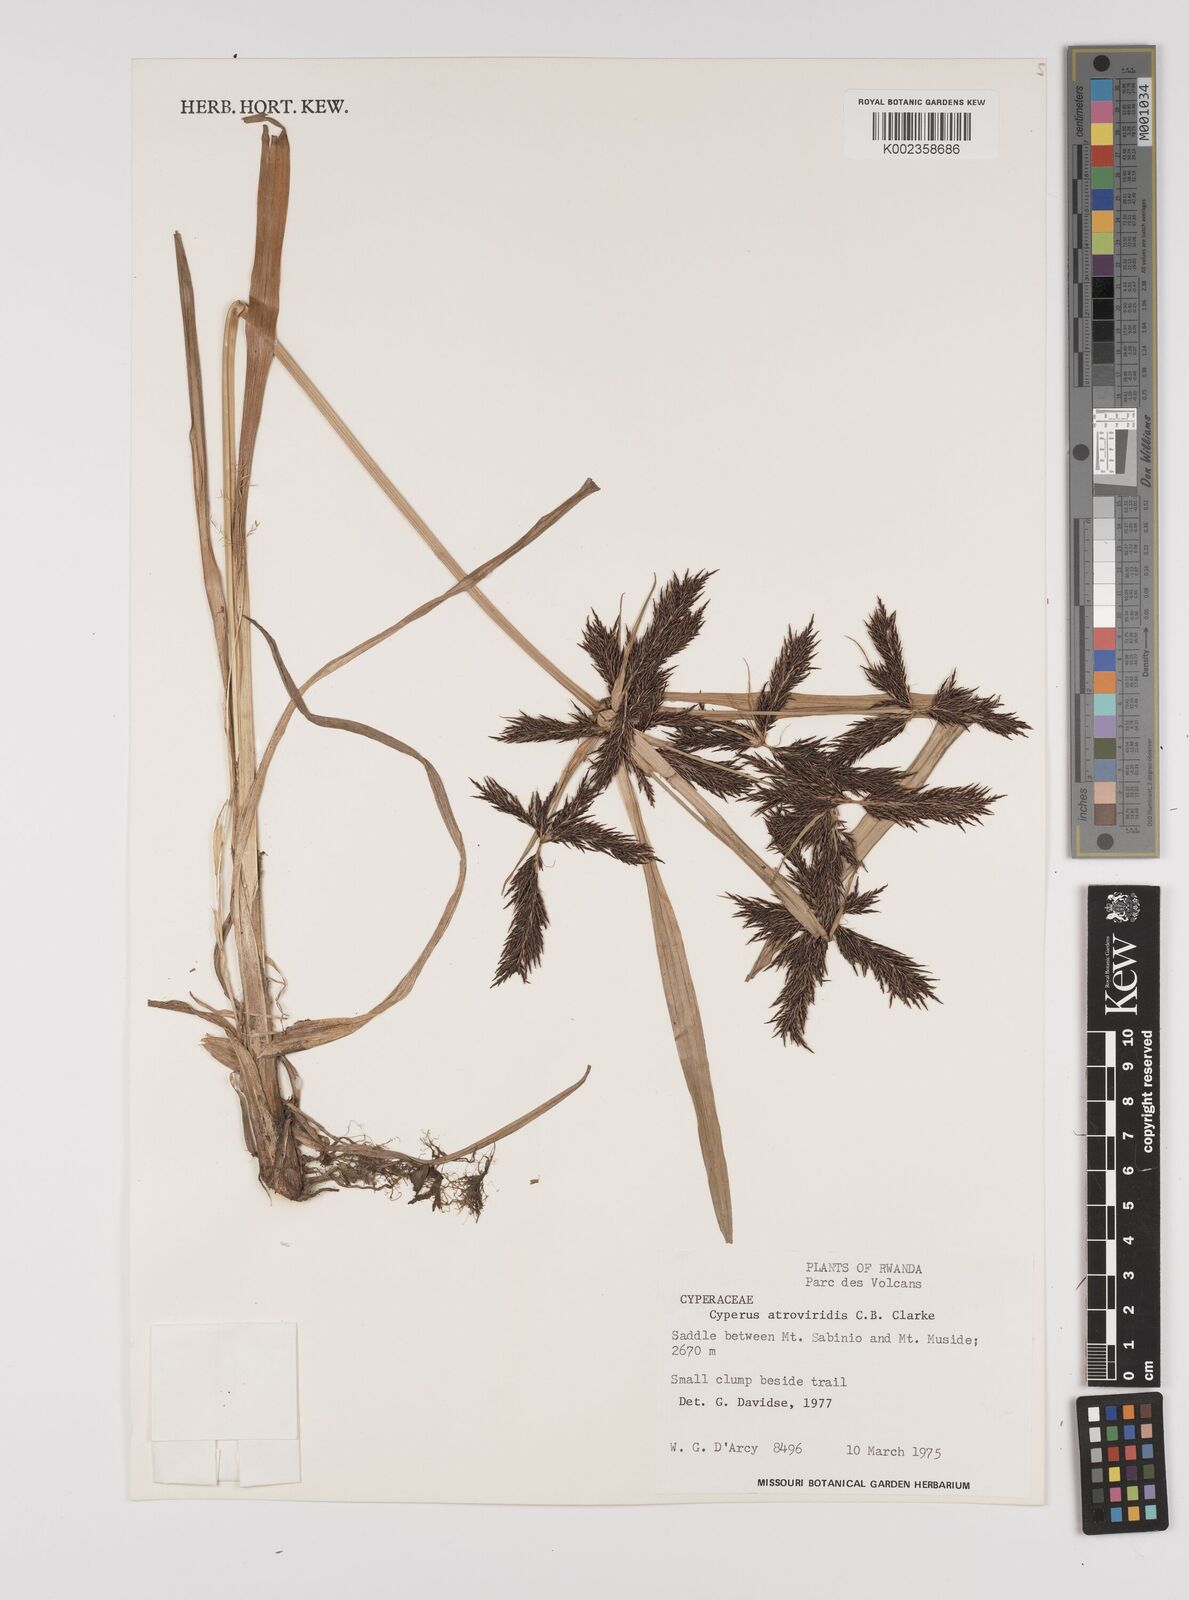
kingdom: Plantae
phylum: Tracheophyta
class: Liliopsida
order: Poales
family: Cyperaceae
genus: Cyperus
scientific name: Cyperus aterrimus
